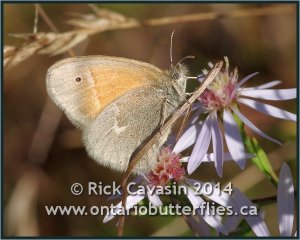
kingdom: Animalia
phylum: Arthropoda
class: Insecta
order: Lepidoptera
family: Nymphalidae
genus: Coenonympha
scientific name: Coenonympha tullia
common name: Large Heath
